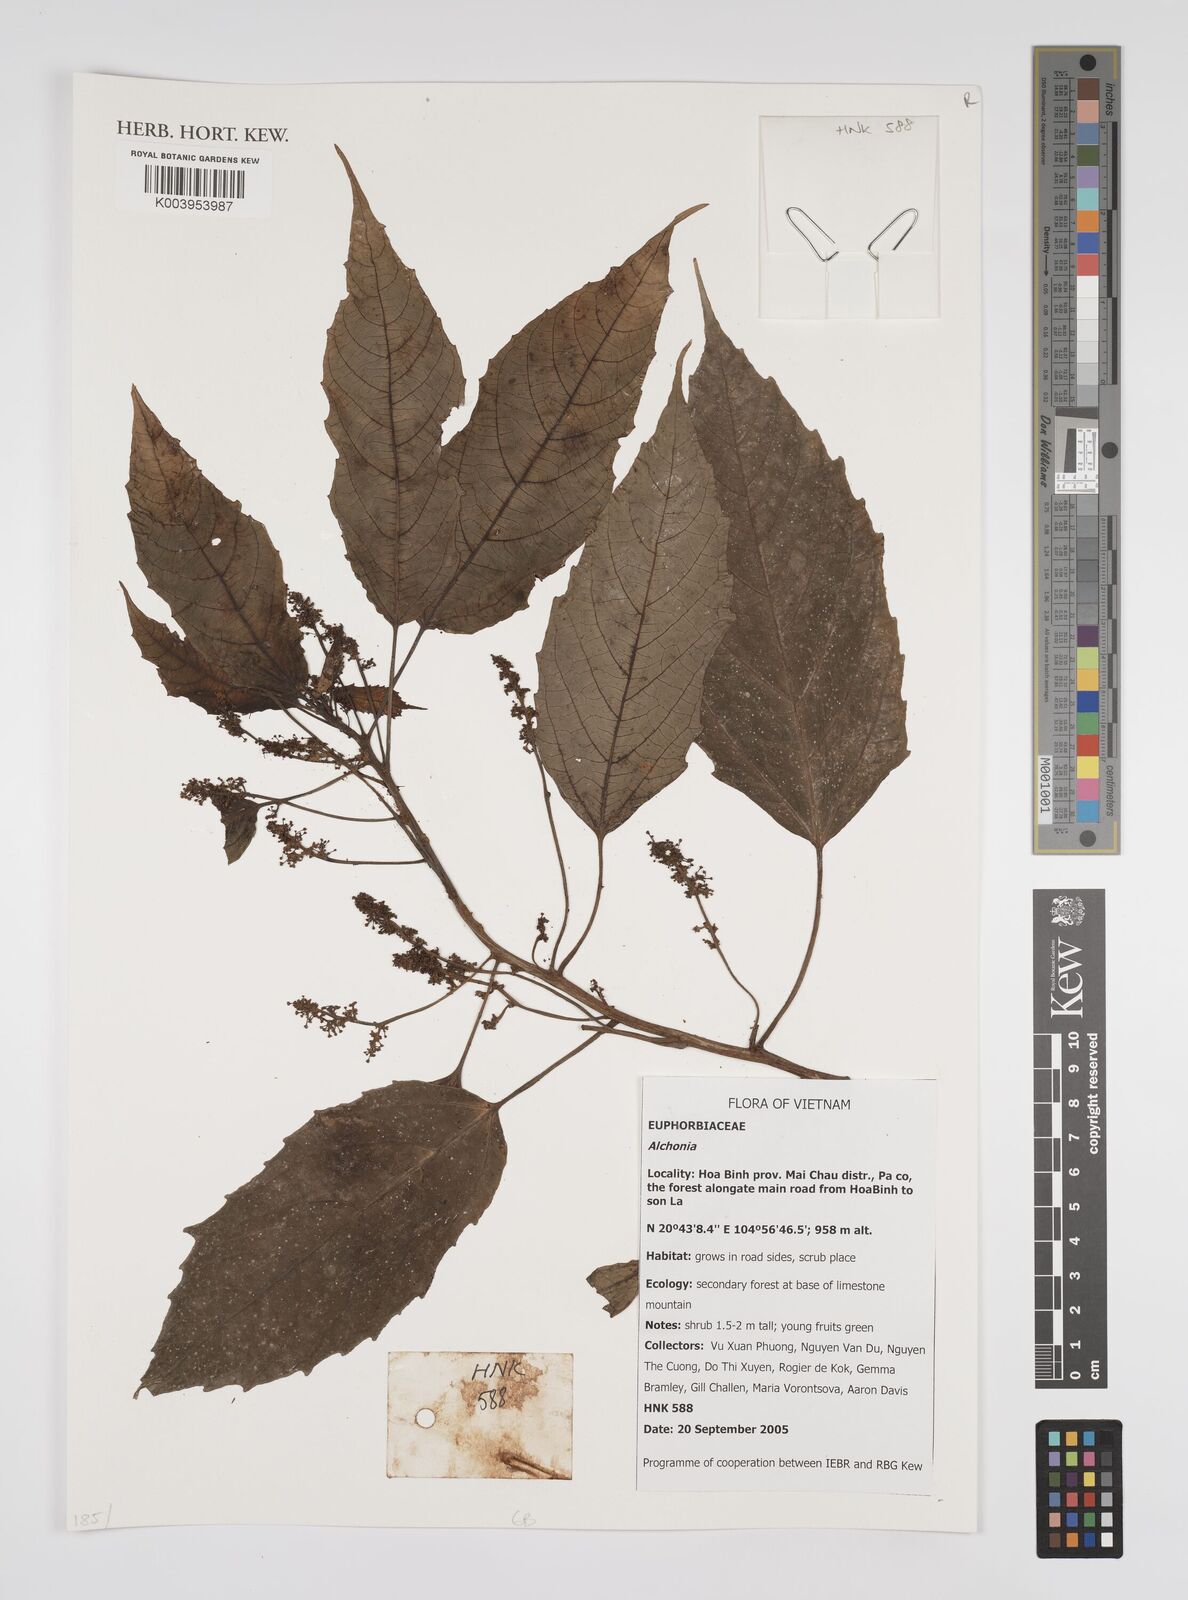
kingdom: Plantae
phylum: Tracheophyta
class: Magnoliopsida
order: Malpighiales
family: Euphorbiaceae
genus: Alchornea
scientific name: Alchornea
